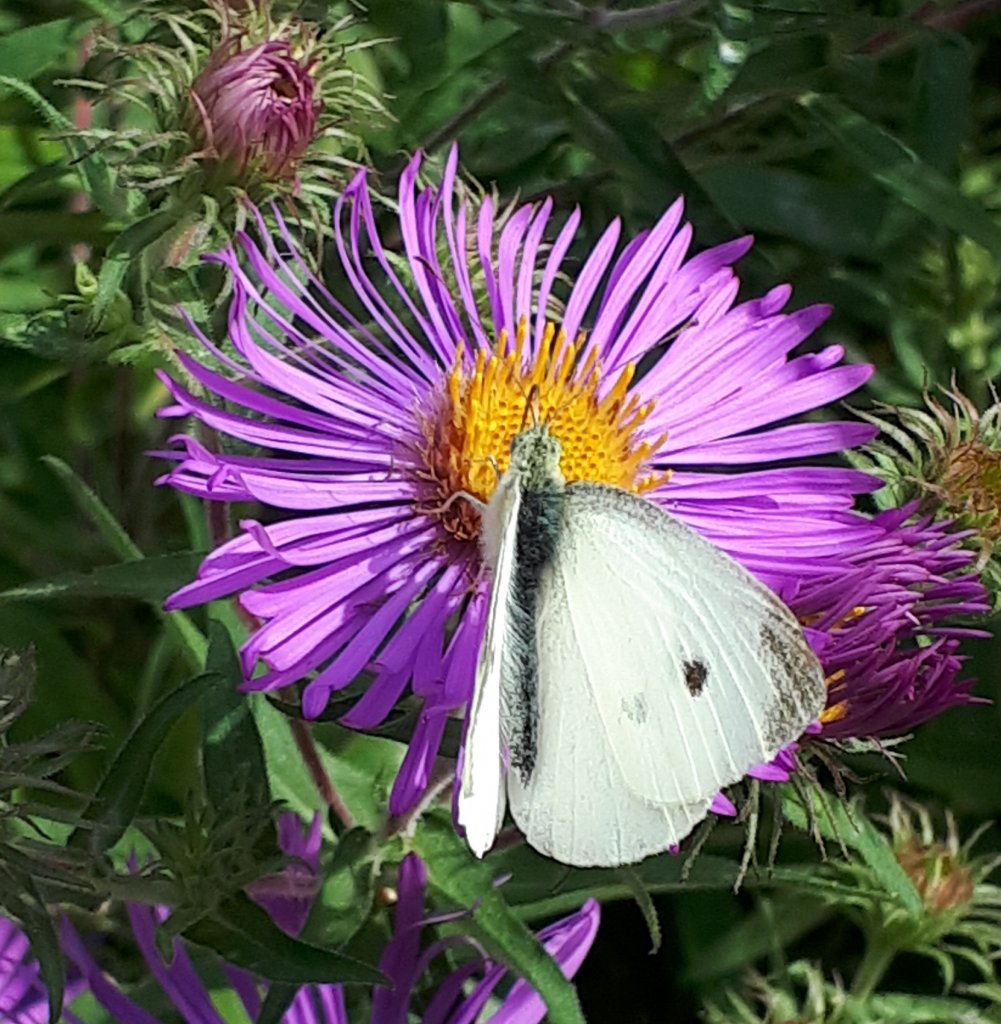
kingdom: Animalia
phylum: Arthropoda
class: Insecta
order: Lepidoptera
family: Pieridae
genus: Pieris
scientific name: Pieris rapae
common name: Cabbage White
